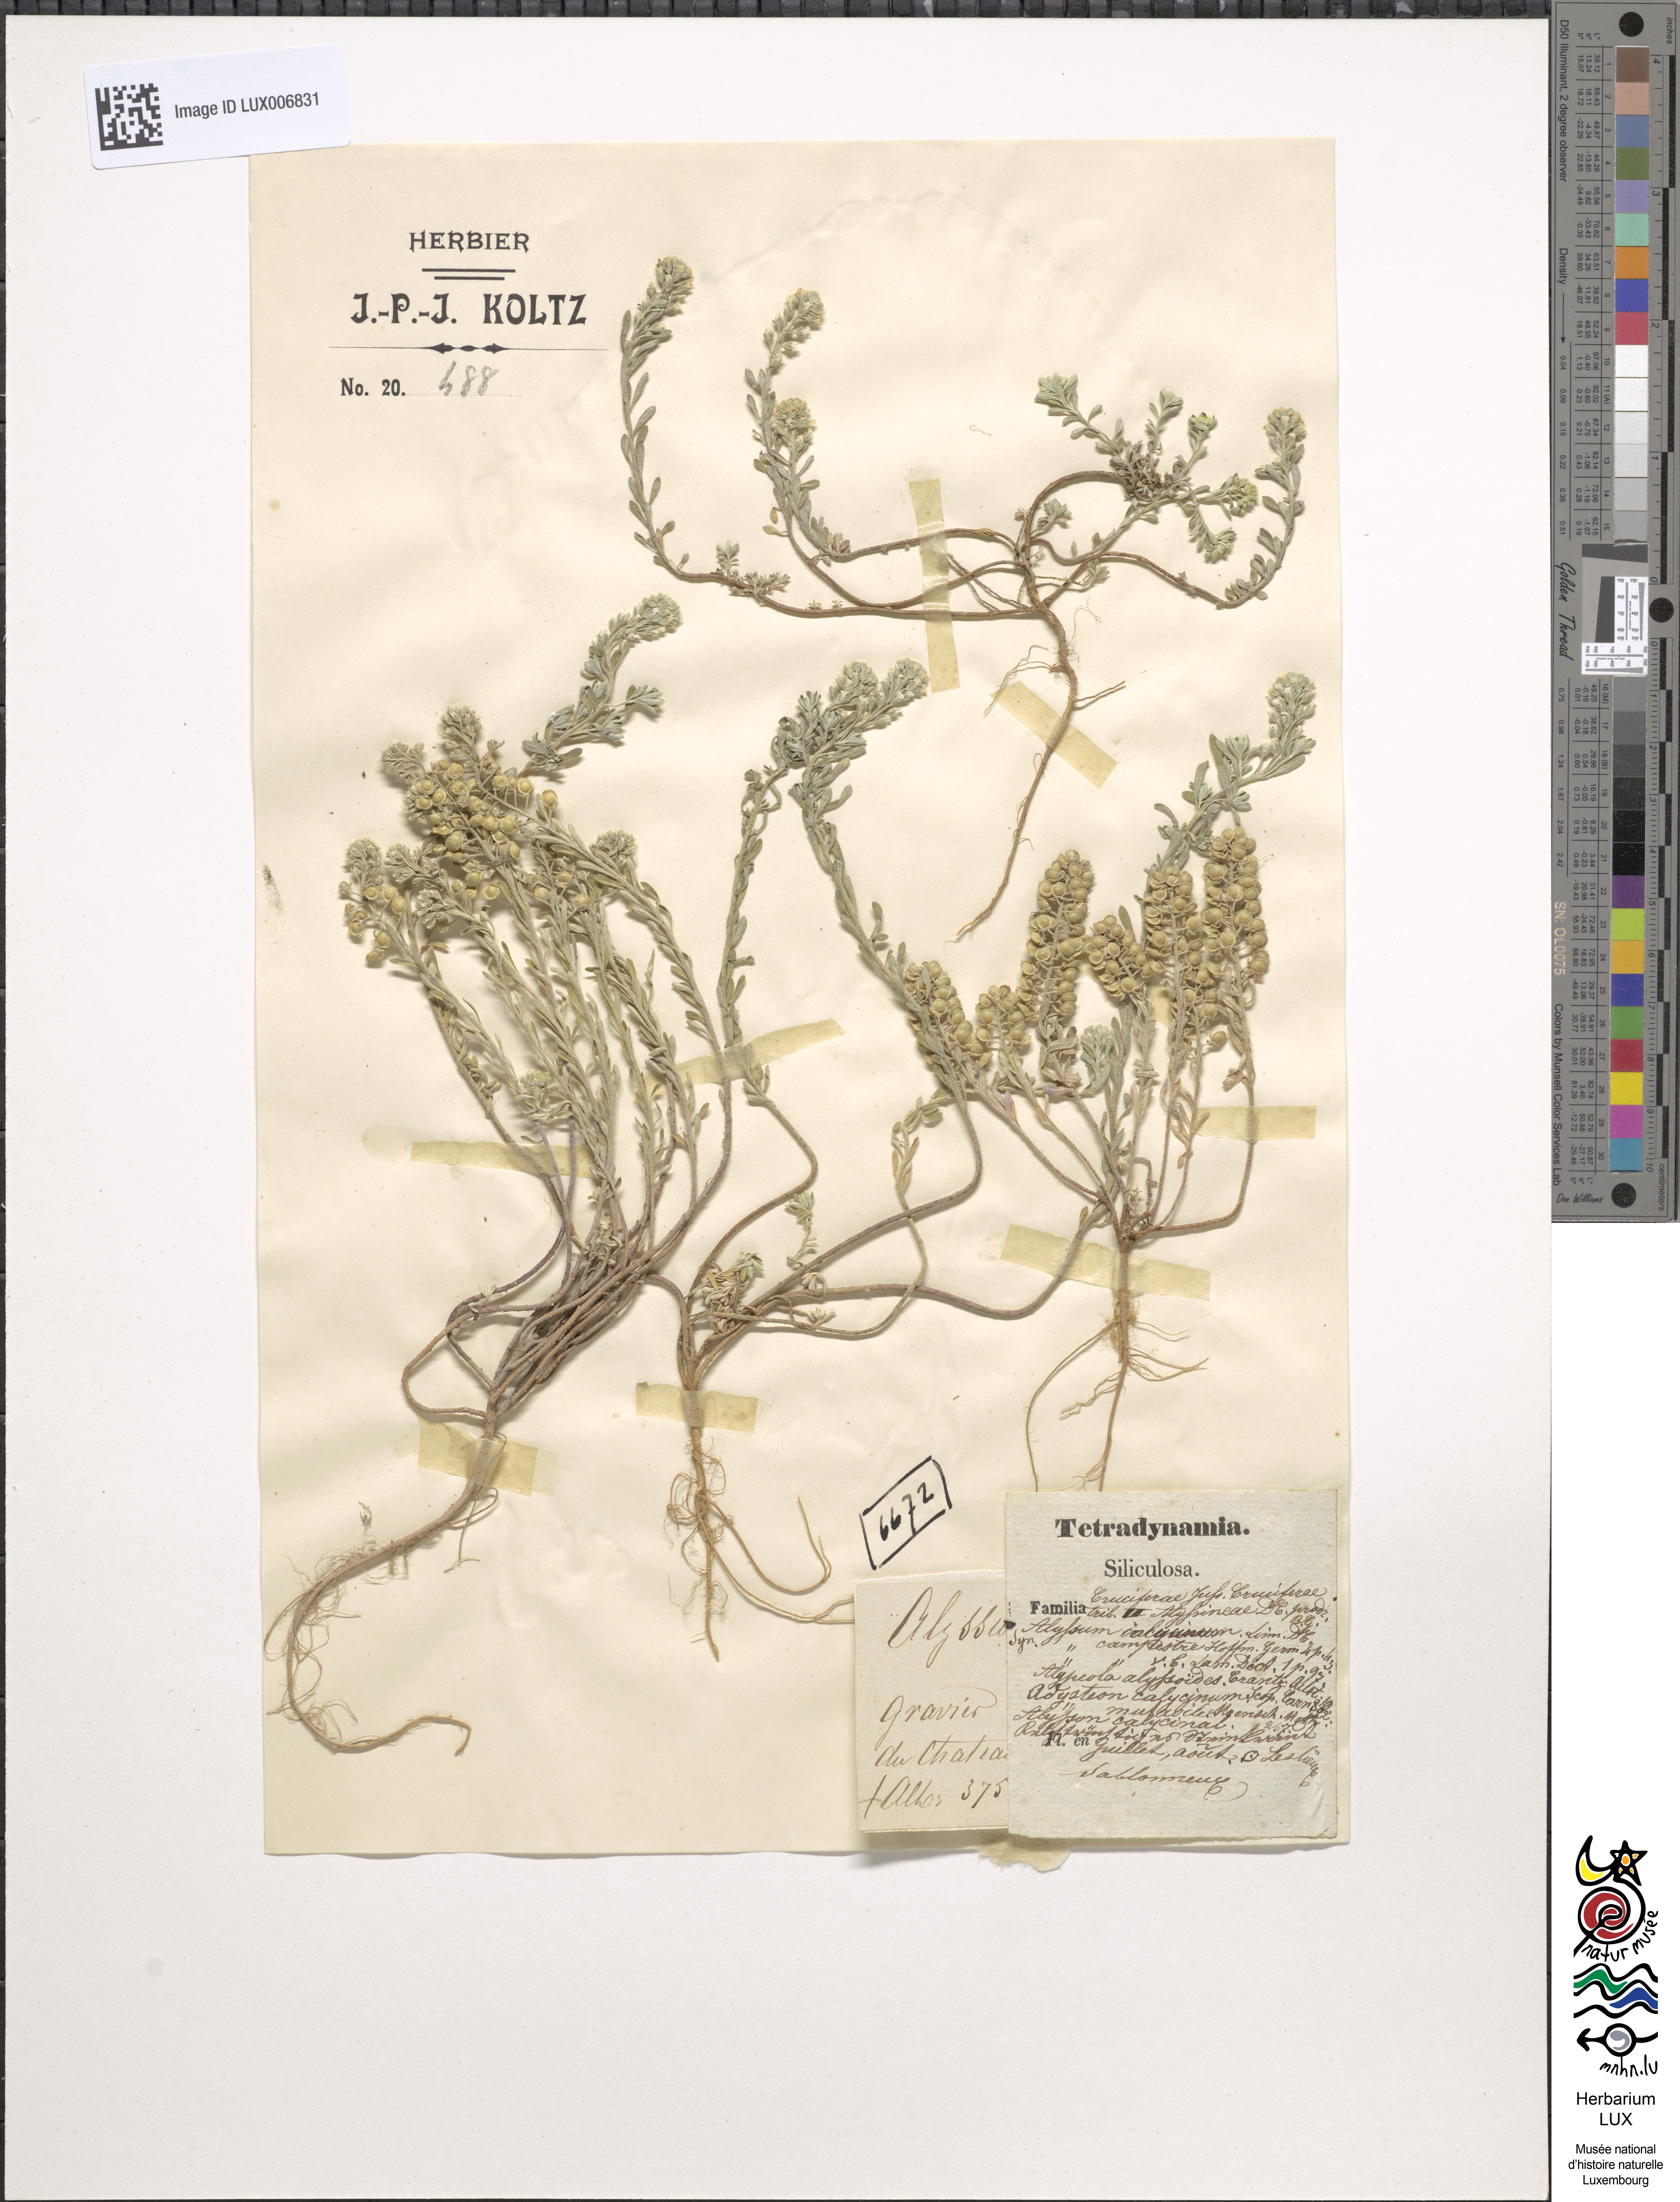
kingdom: Plantae
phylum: Tracheophyta
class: Magnoliopsida
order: Brassicales
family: Brassicaceae
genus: Alyssum
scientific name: Alyssum alyssoides
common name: Small alison
